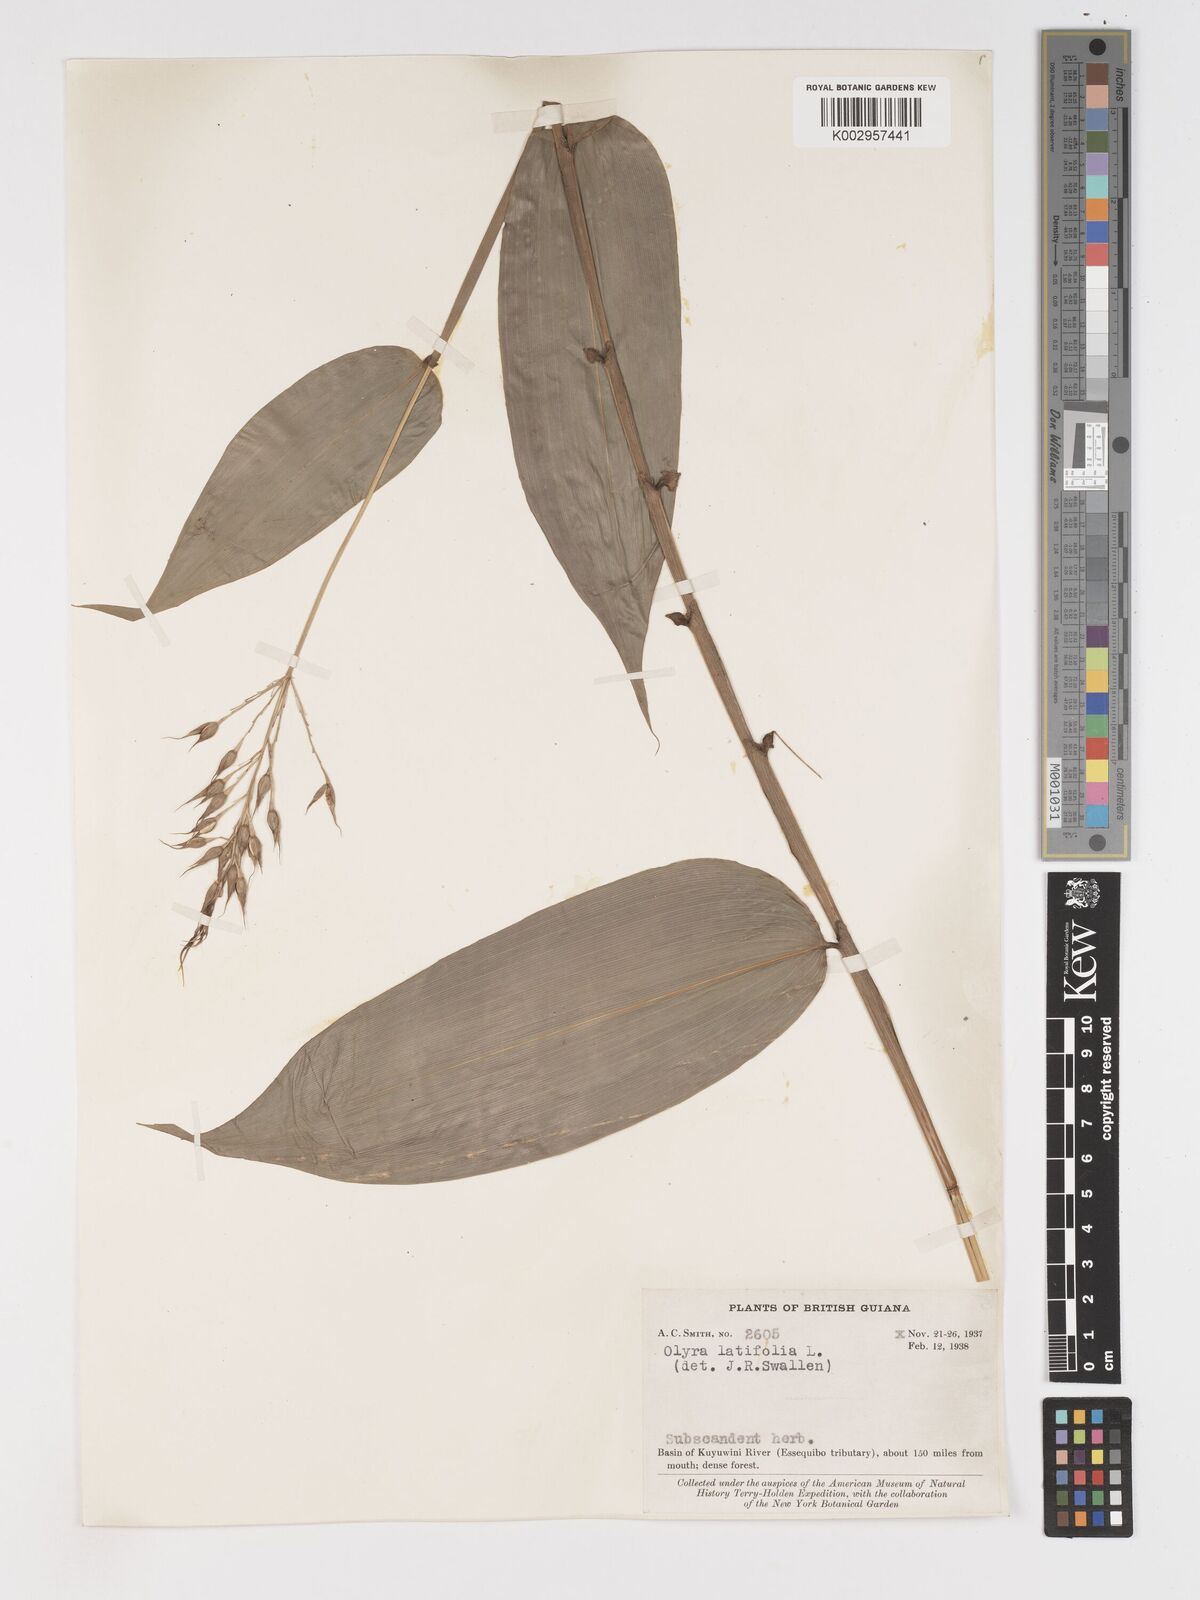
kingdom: Plantae
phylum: Tracheophyta
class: Liliopsida
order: Poales
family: Poaceae
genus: Olyra
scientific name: Olyra latifolia
